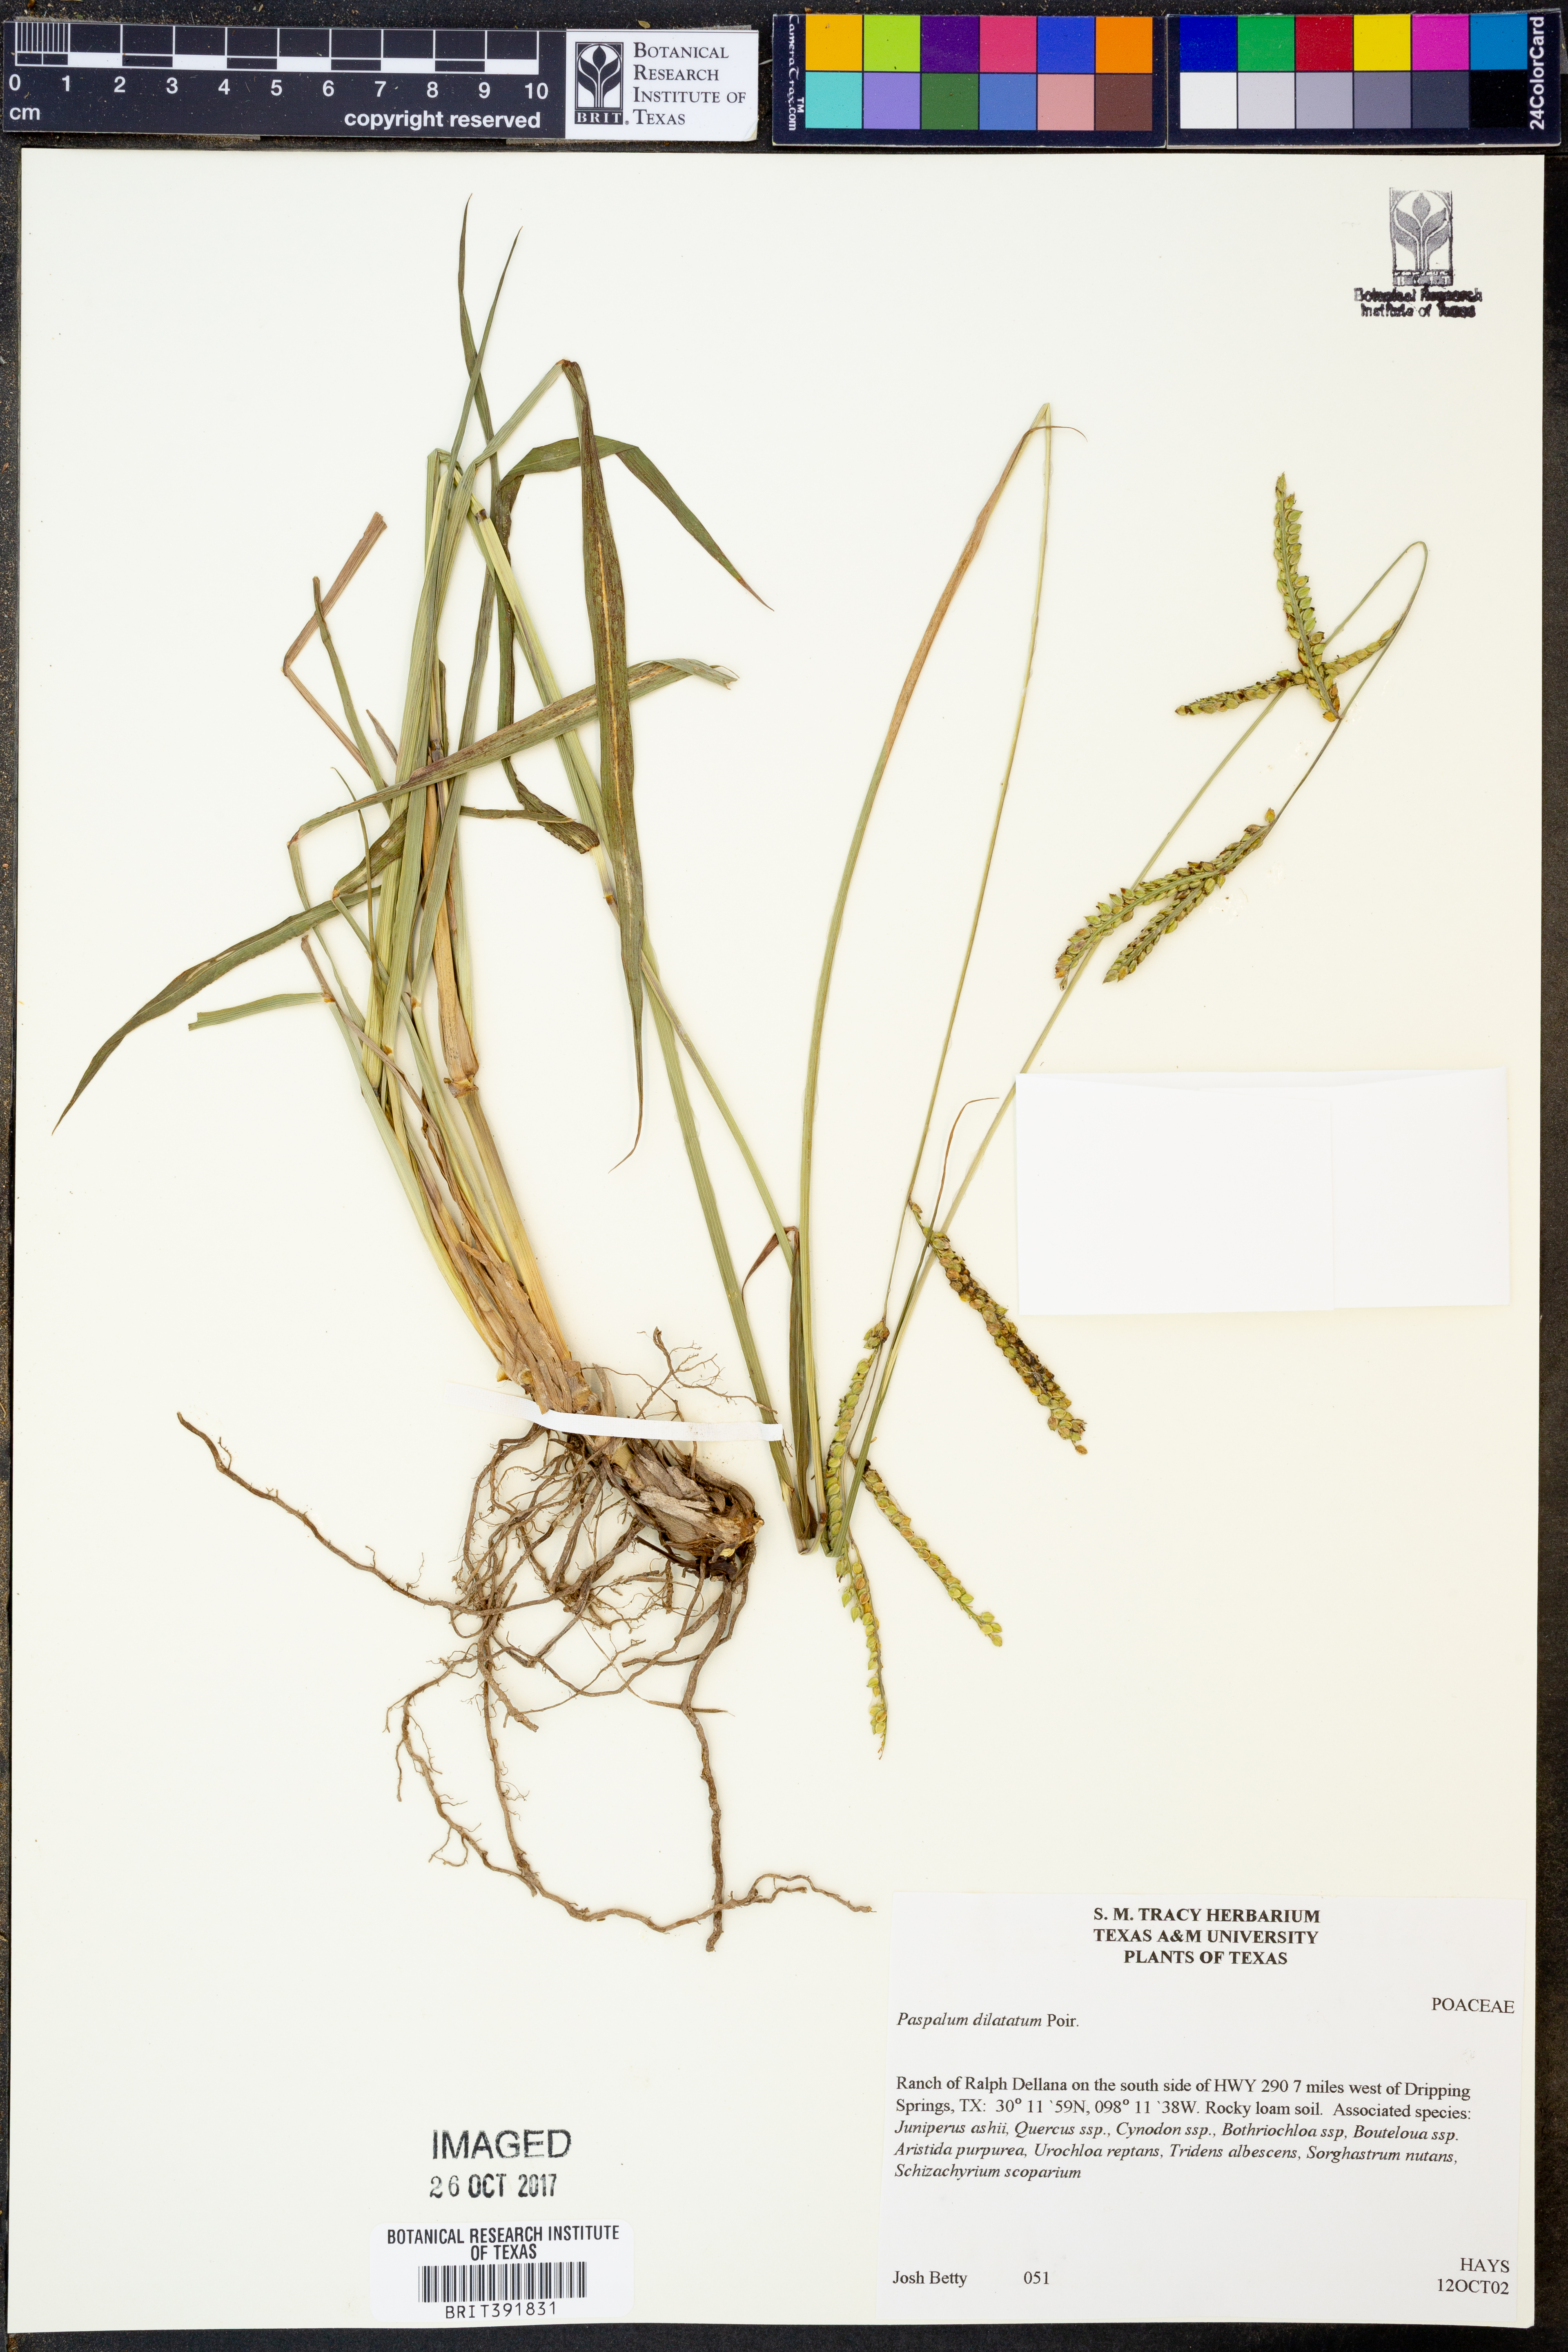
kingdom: Plantae
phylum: Tracheophyta
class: Liliopsida
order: Poales
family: Poaceae
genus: Paspalum
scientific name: Paspalum dilatatum
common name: Dallisgrass
